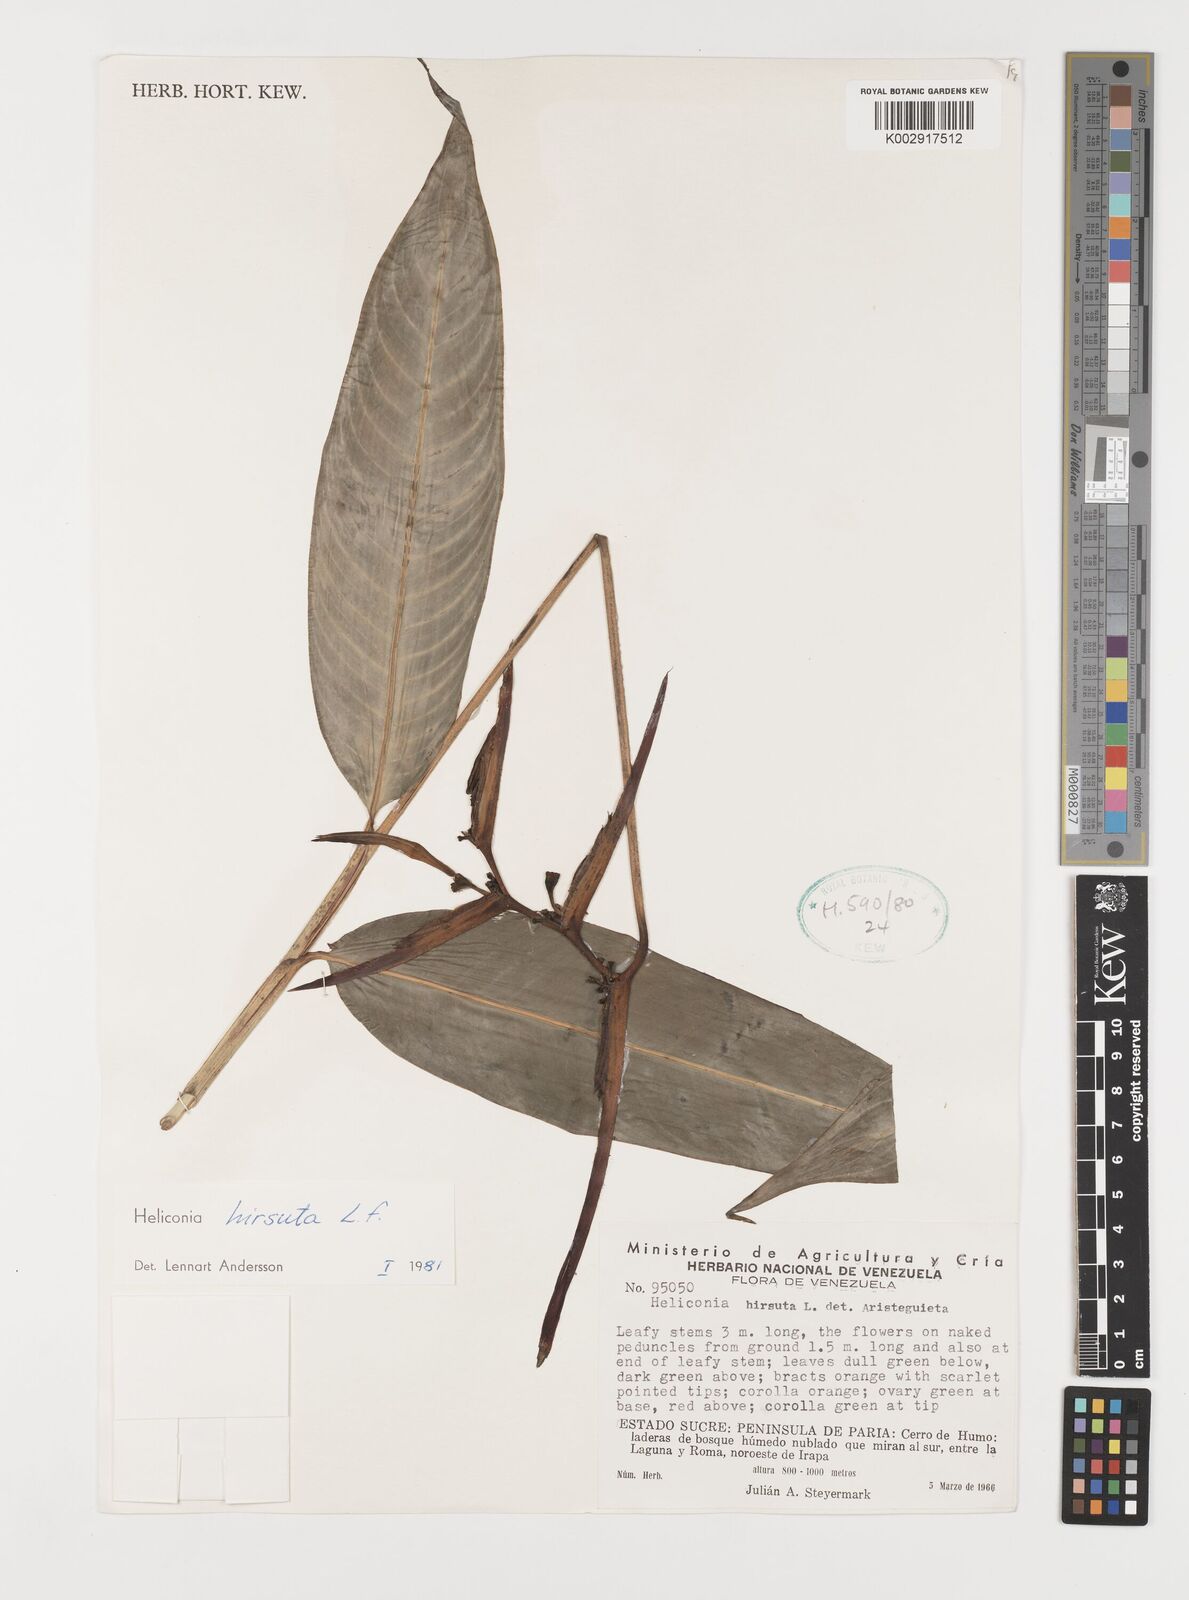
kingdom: Plantae
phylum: Tracheophyta
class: Liliopsida
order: Zingiberales
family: Heliconiaceae
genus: Heliconia
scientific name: Heliconia hirsuta
